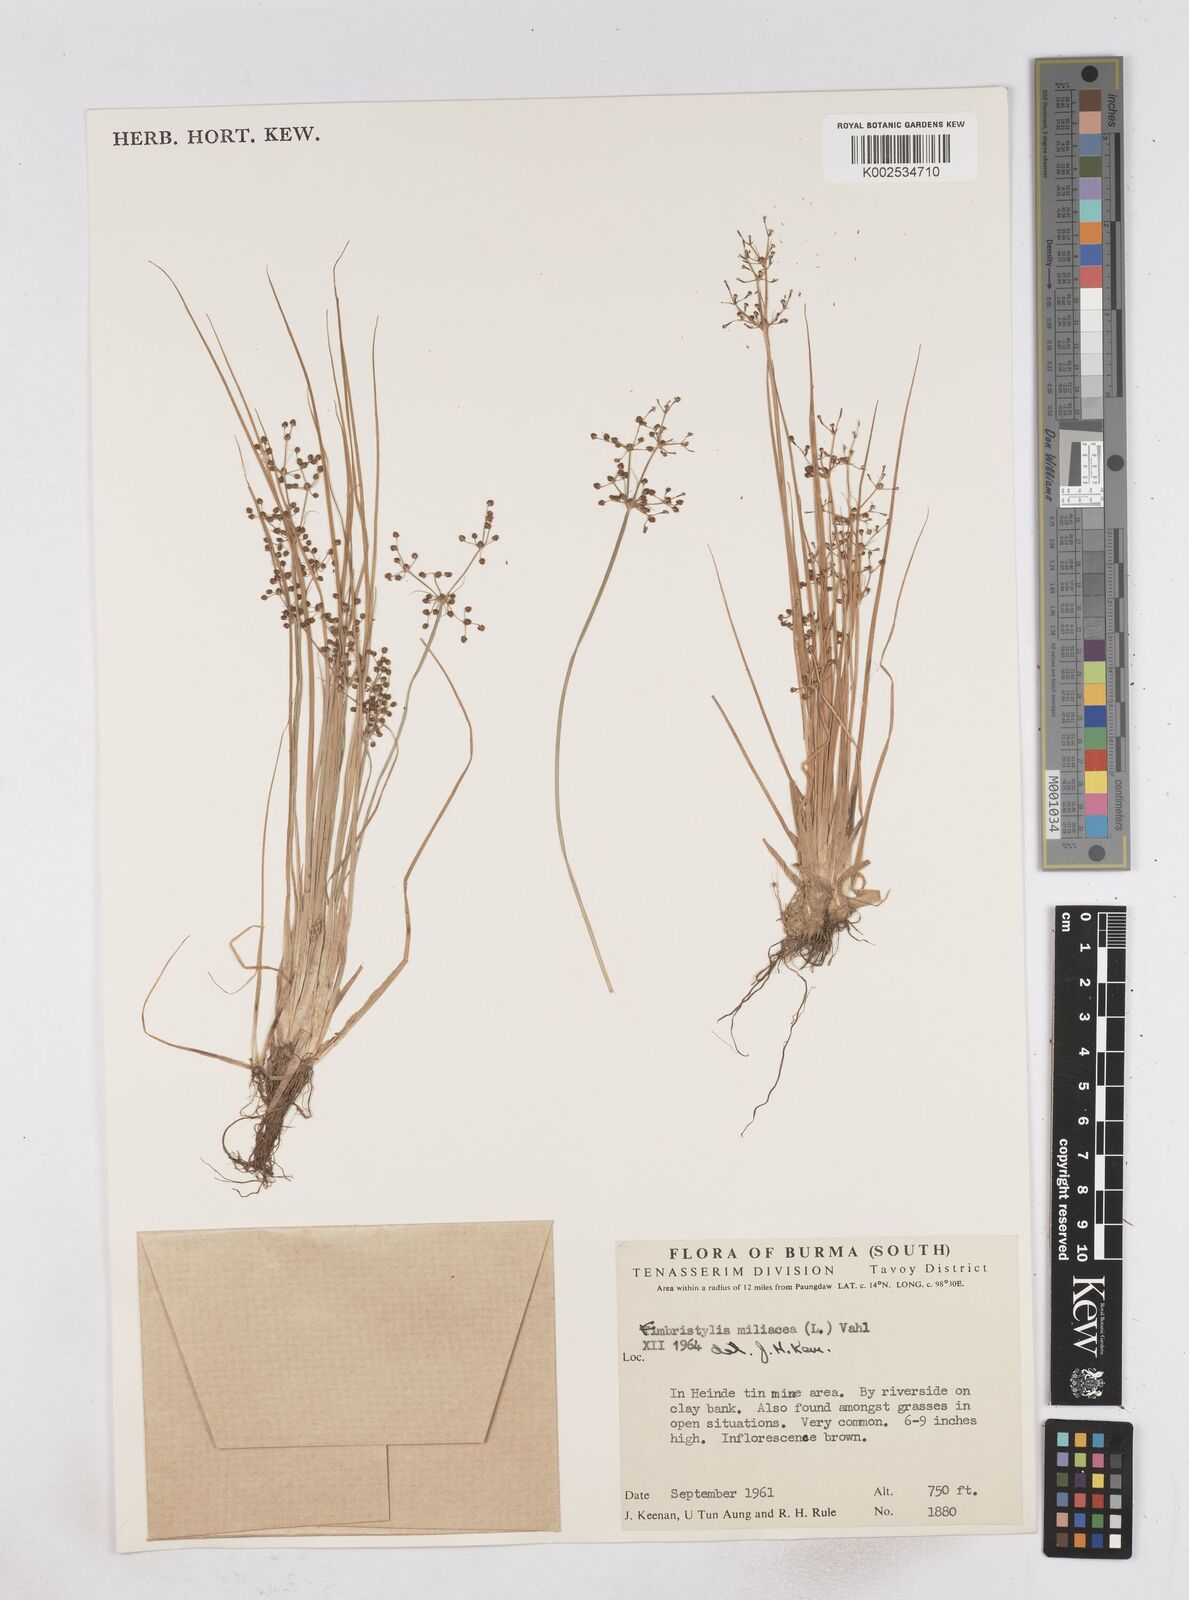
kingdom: Plantae
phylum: Tracheophyta
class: Liliopsida
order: Poales
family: Cyperaceae
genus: Fimbristylis
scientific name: Fimbristylis littoralis
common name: Fimbry
